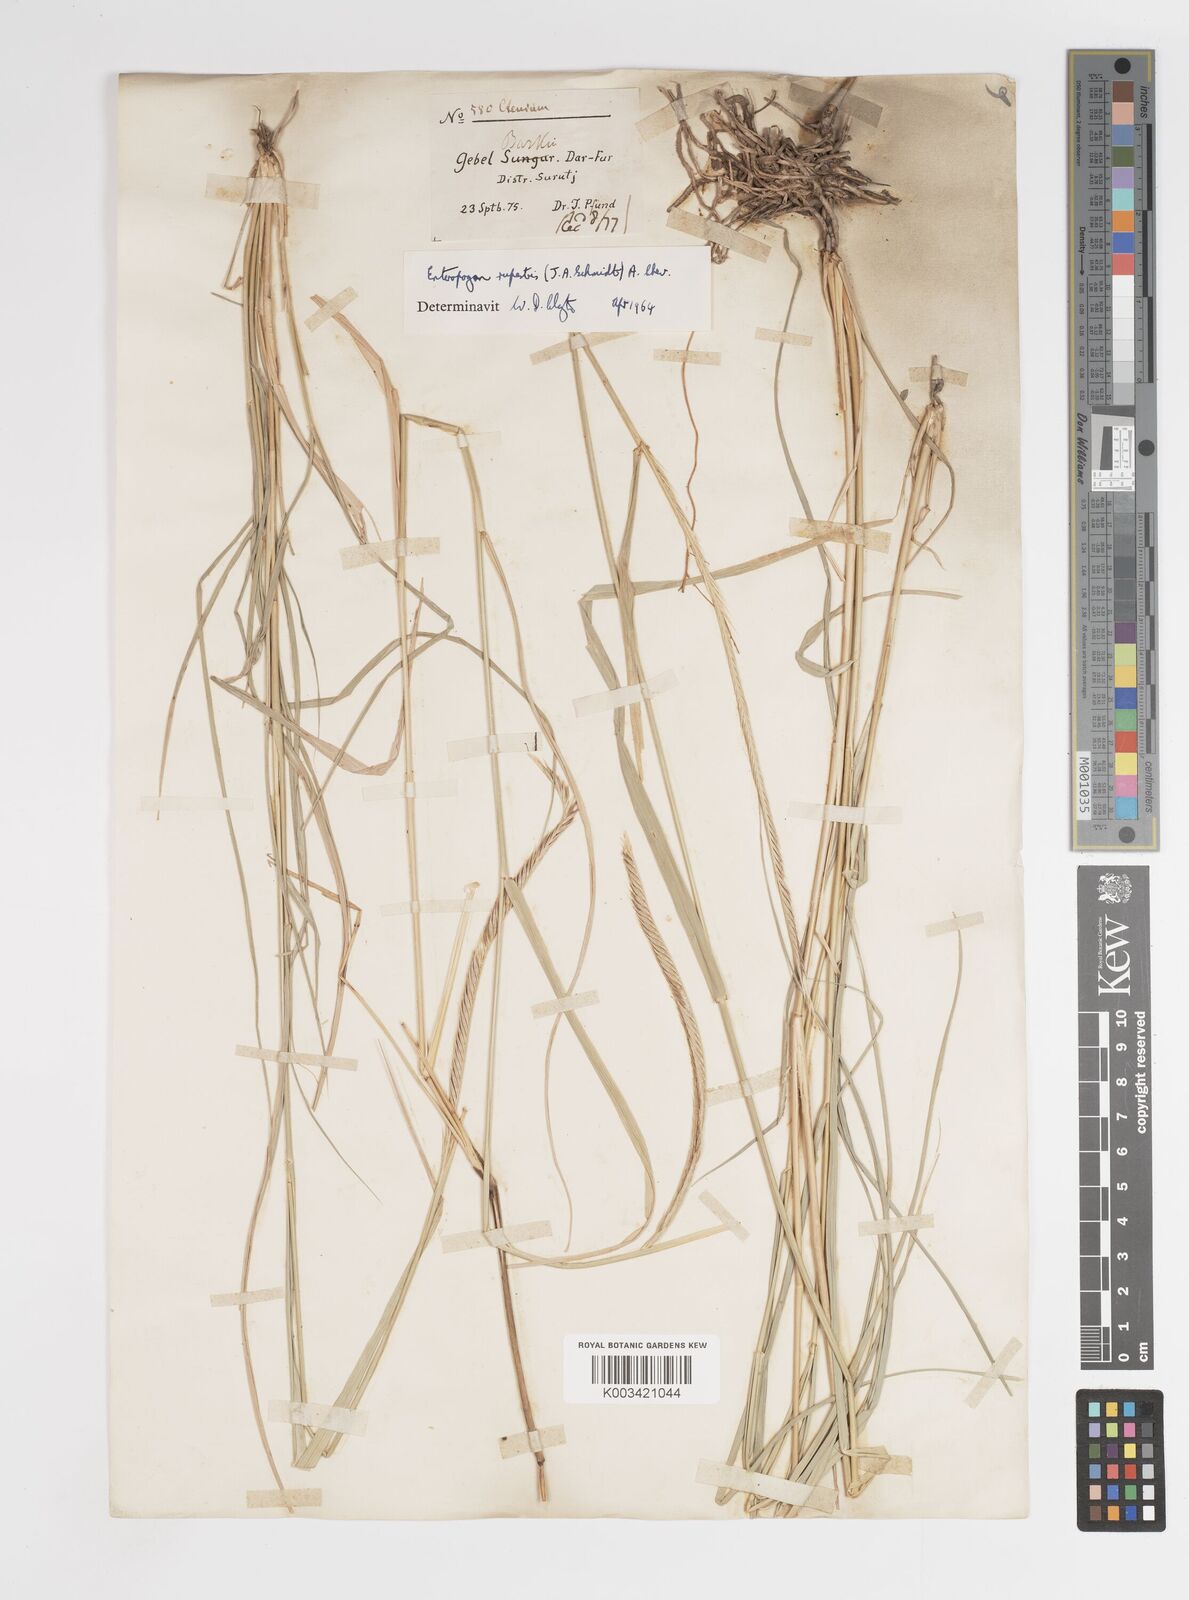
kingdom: Plantae
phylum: Tracheophyta
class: Liliopsida
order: Poales
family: Poaceae
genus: Enteropogon
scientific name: Enteropogon rupestris
